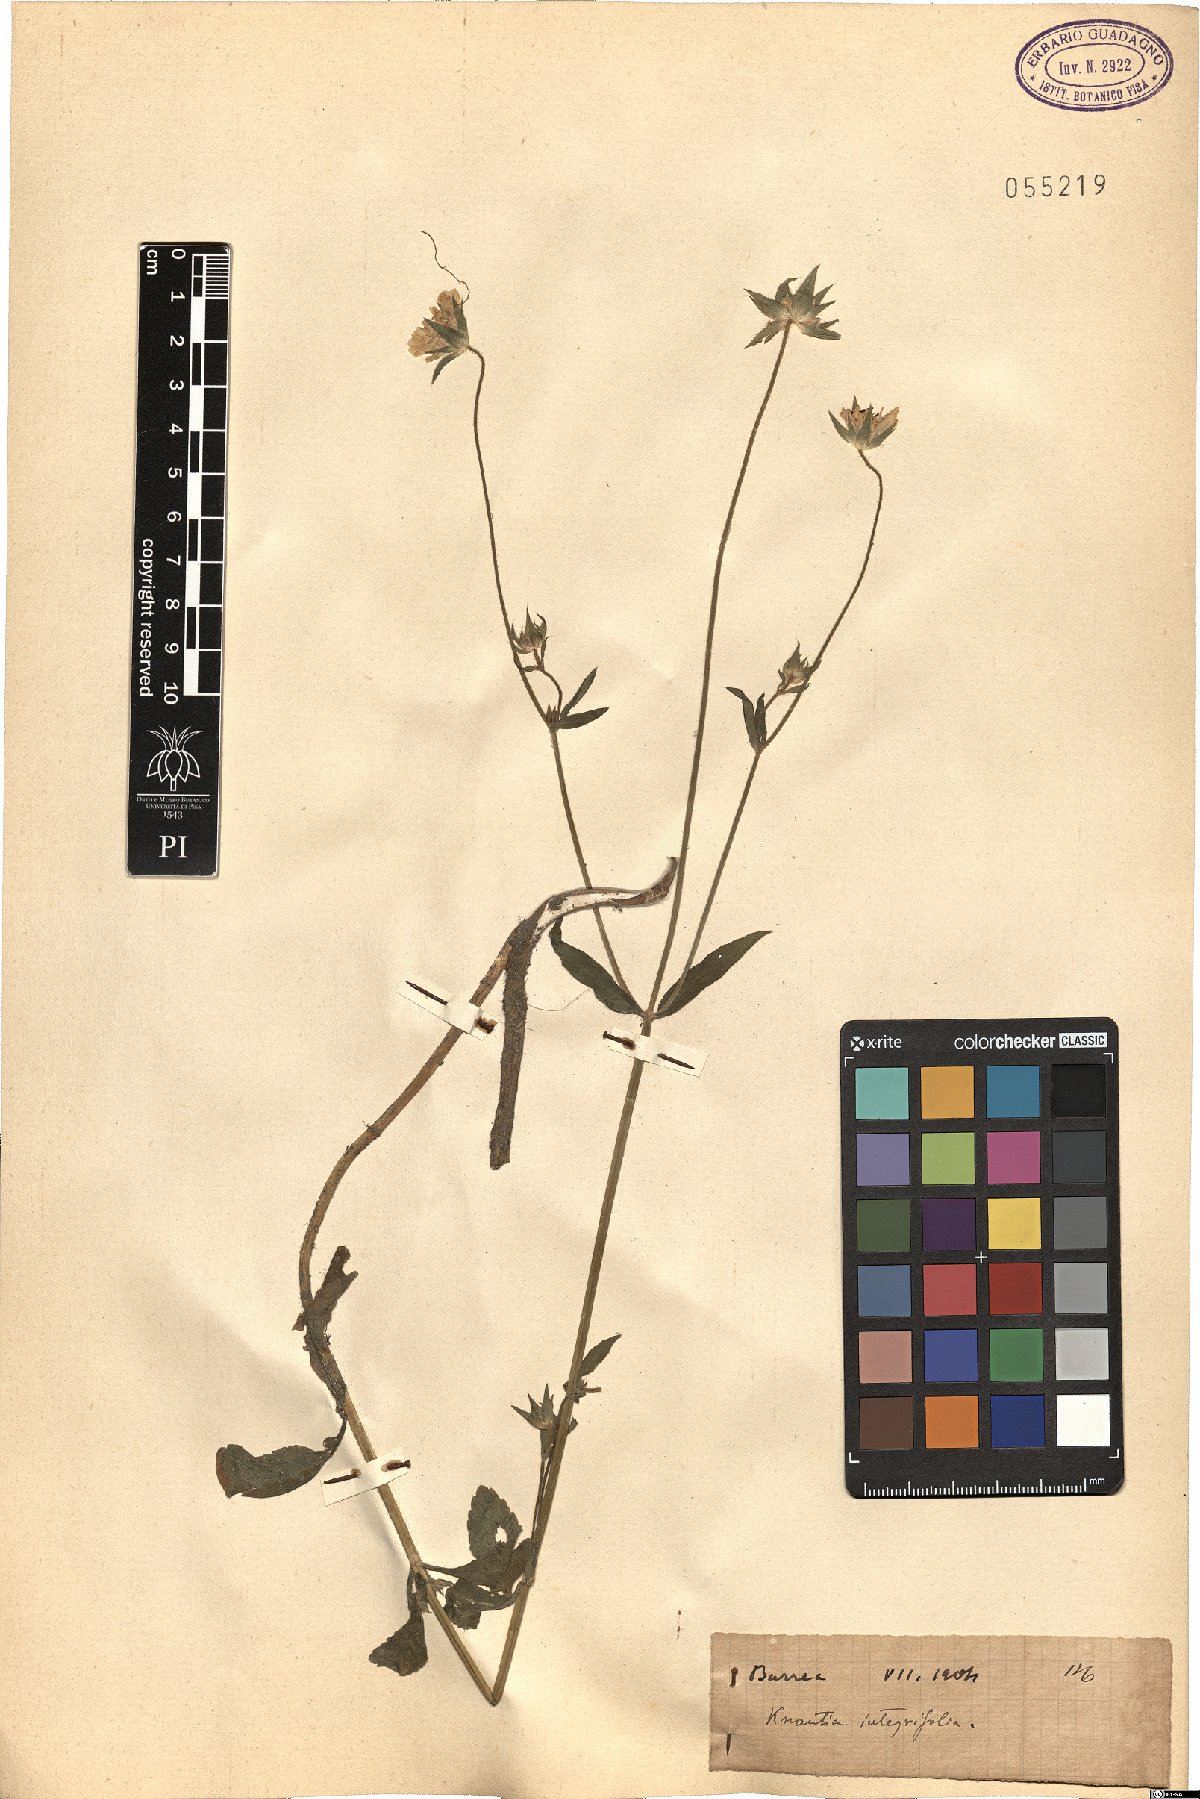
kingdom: Plantae
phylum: Tracheophyta
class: Magnoliopsida
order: Dipsacales
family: Caprifoliaceae
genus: Knautia
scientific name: Knautia integrifolia
